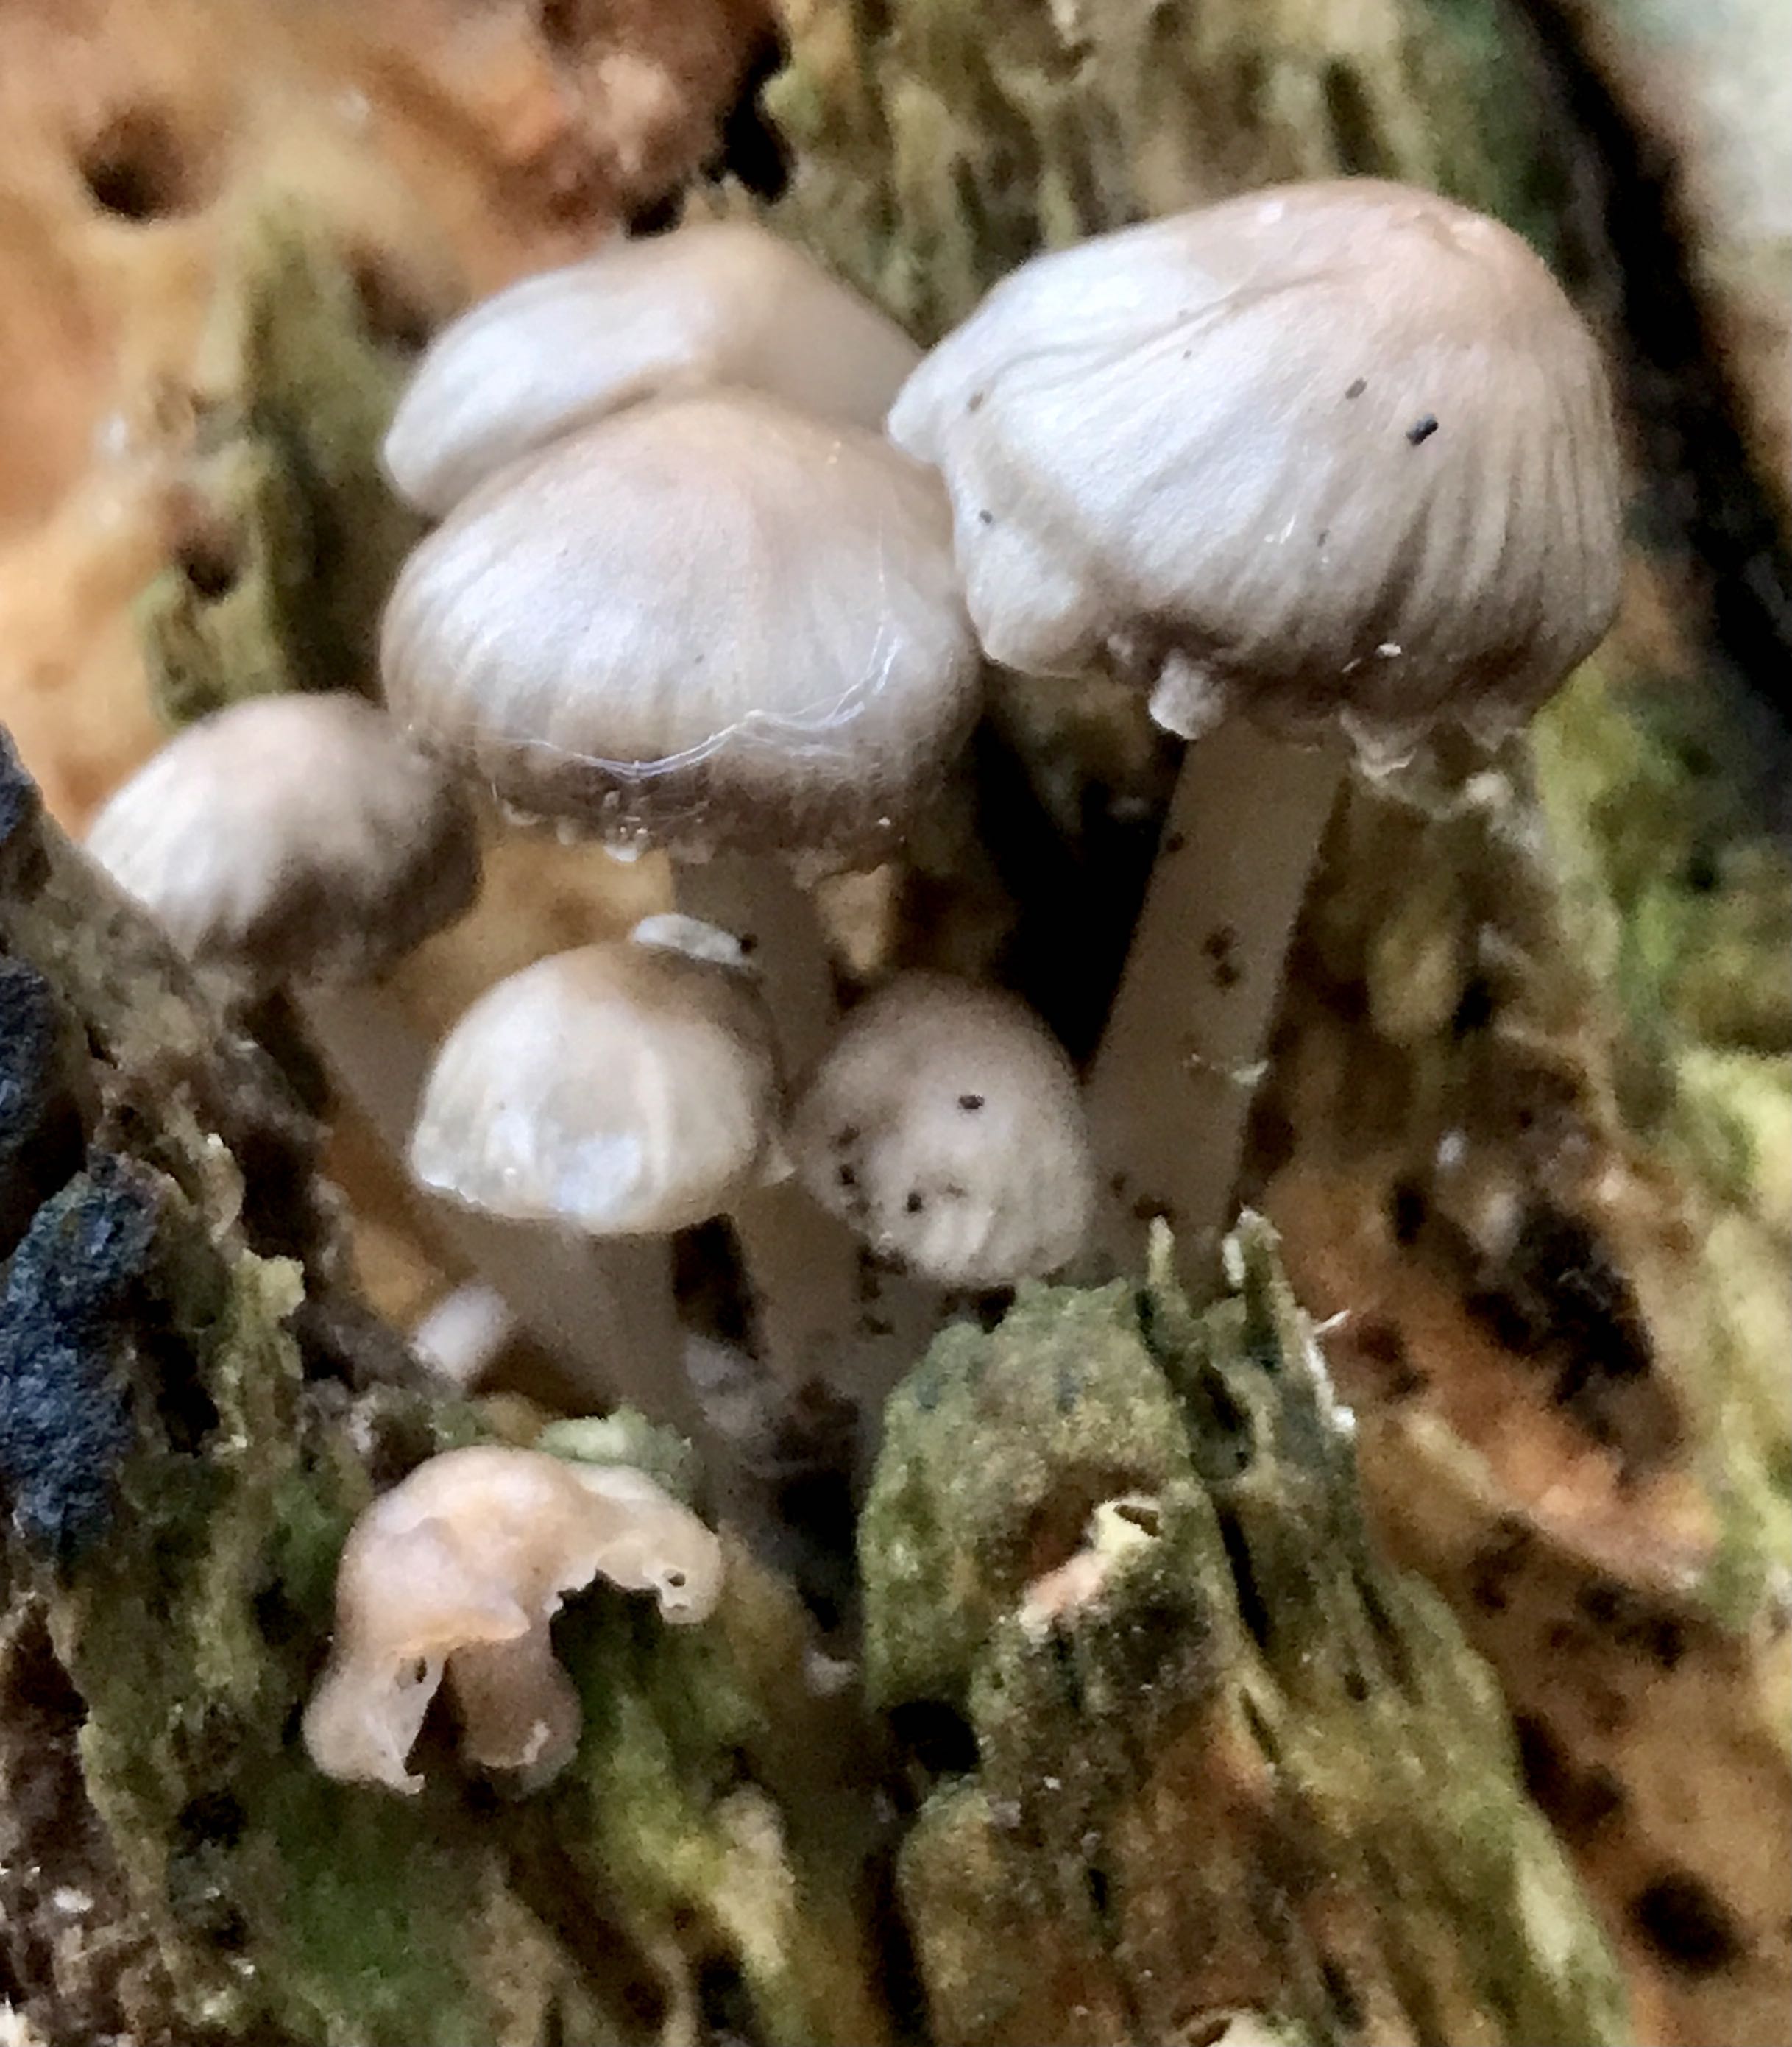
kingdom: Fungi
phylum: Basidiomycota
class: Agaricomycetes
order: Agaricales
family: Mycenaceae
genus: Mycena
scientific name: Mycena galericulata
